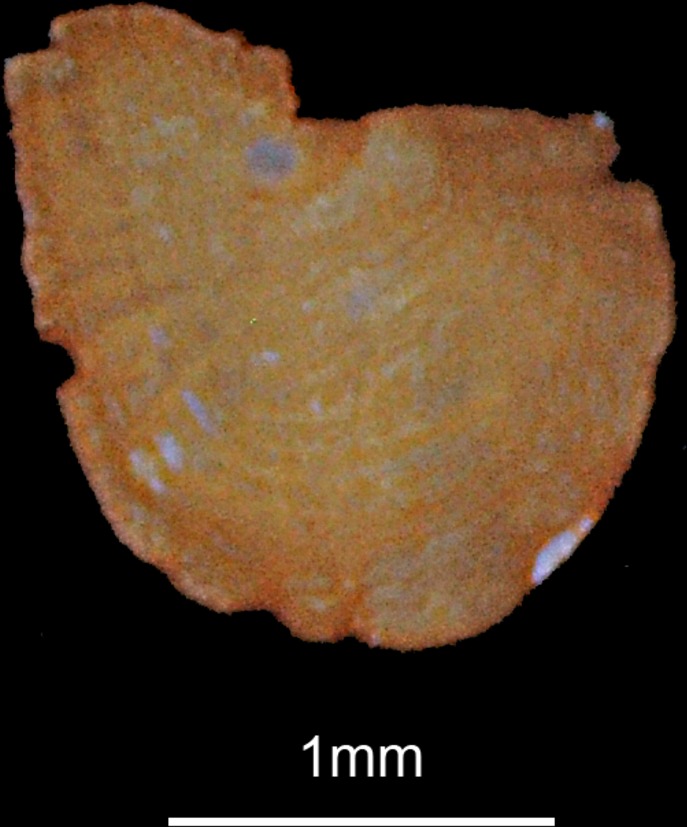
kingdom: Animalia
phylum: Chordata
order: Osmeriformes
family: Osmeridae
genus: Osmerus
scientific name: Osmerus eperlanus
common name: Smelt
